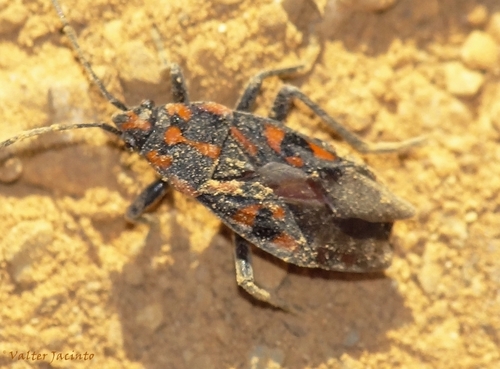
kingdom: Animalia
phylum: Arthropoda
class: Insecta
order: Hemiptera
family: Lygaeidae
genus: Spilostethus
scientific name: Spilostethus saxatilis
